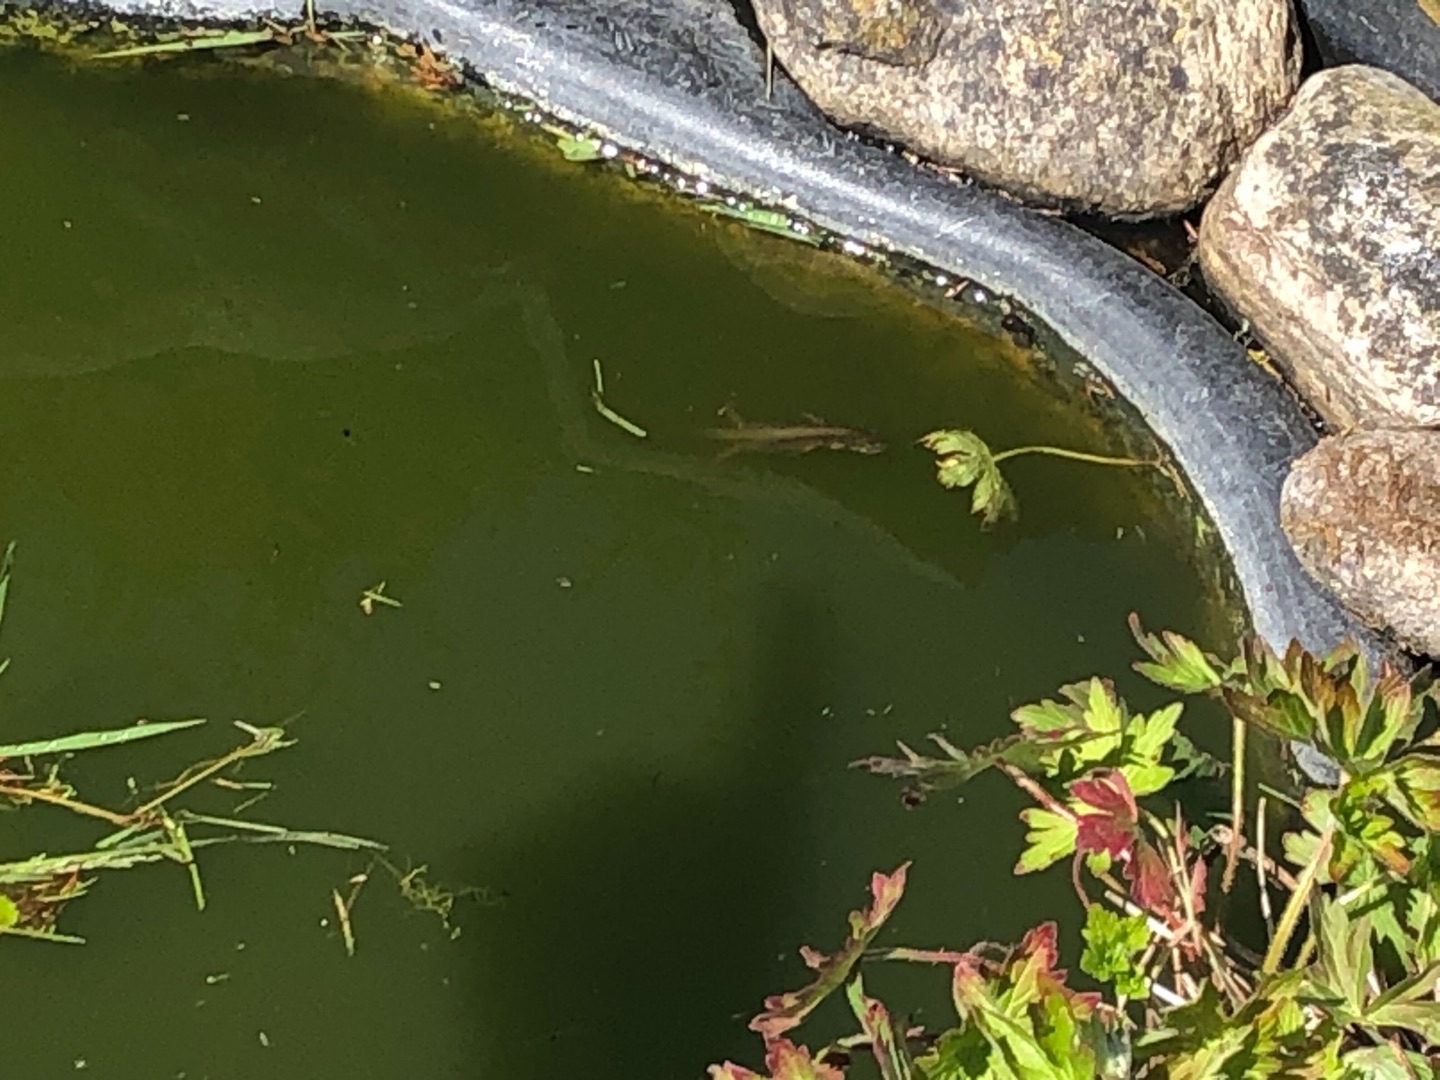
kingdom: Animalia
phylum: Chordata
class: Amphibia
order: Caudata
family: Salamandridae
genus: Lissotriton
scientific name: Lissotriton vulgaris
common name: Lille vandsalamander
